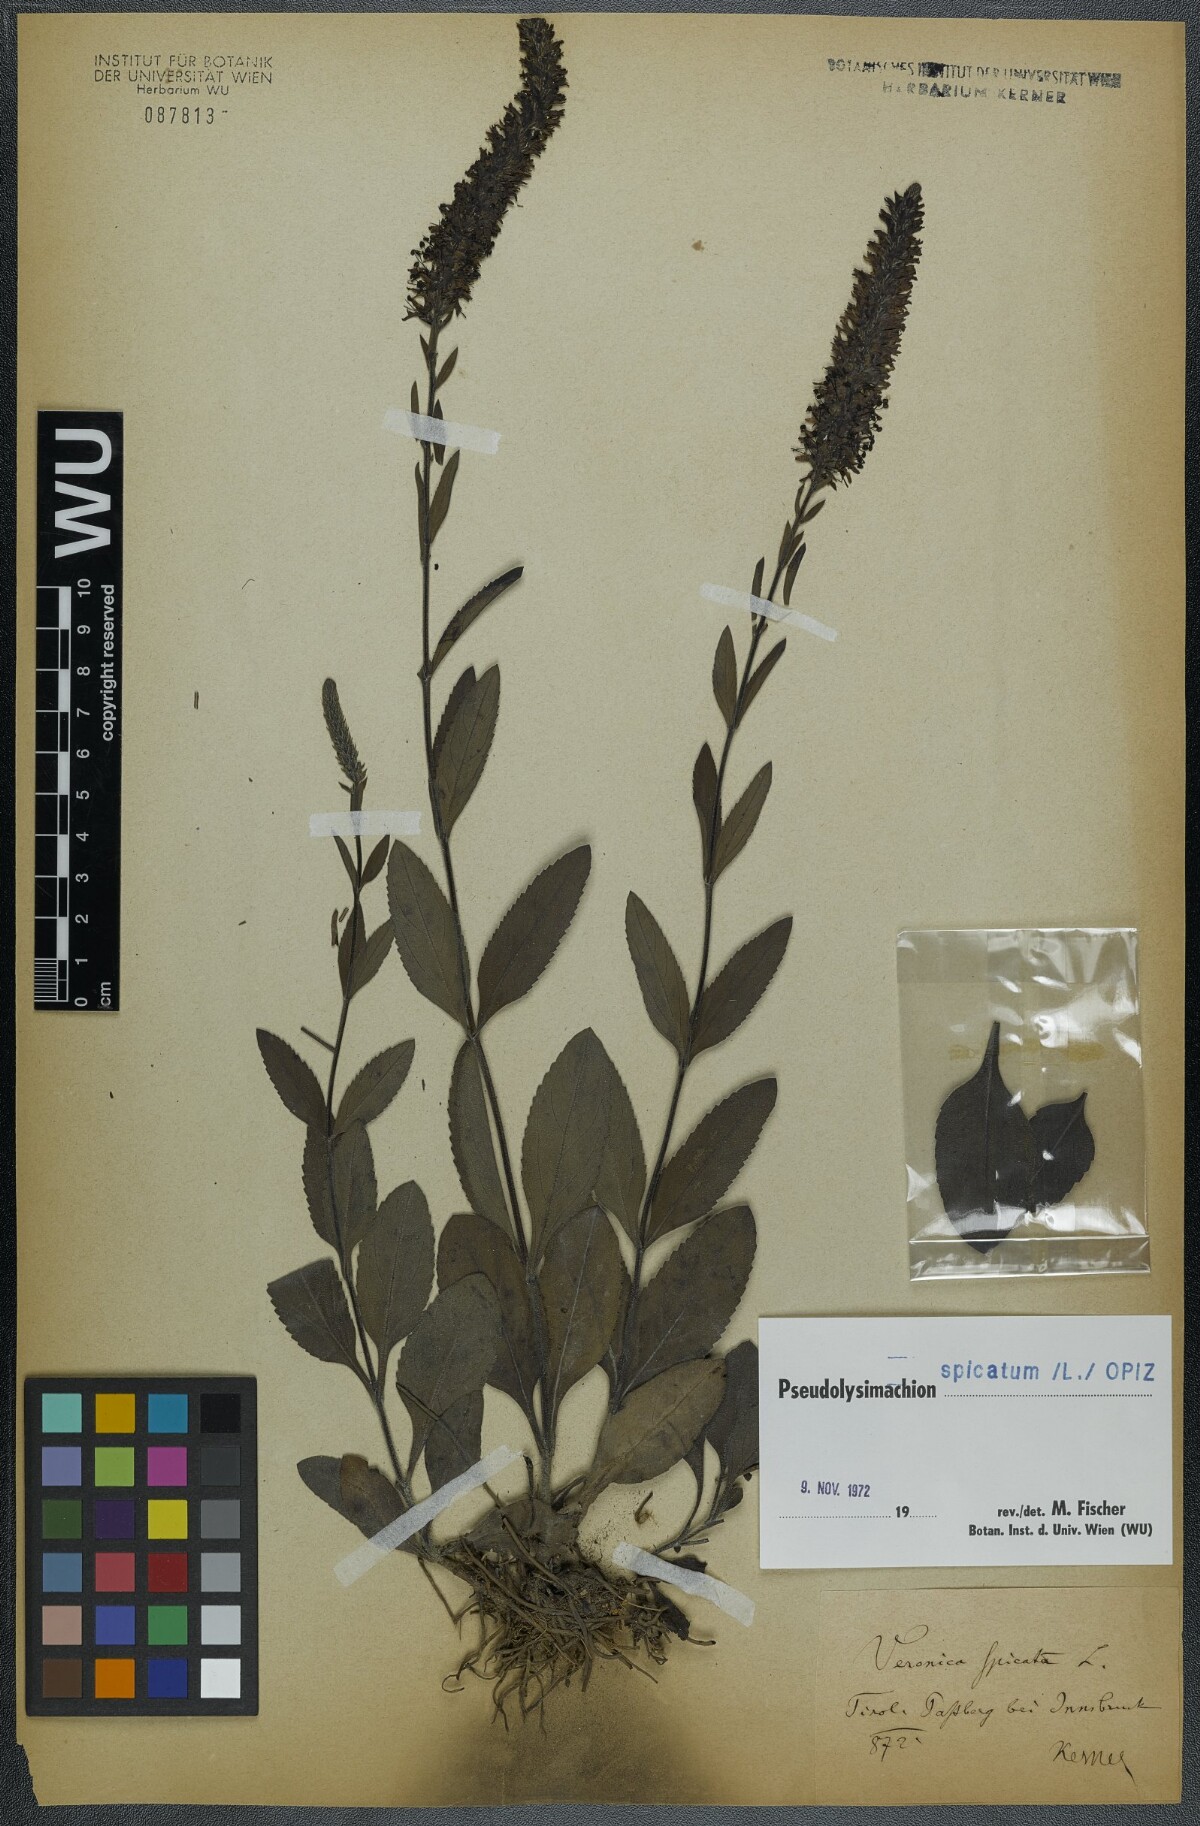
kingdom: Plantae
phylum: Tracheophyta
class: Magnoliopsida
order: Lamiales
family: Plantaginaceae
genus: Veronica
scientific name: Veronica spicata
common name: Spiked speedwell
